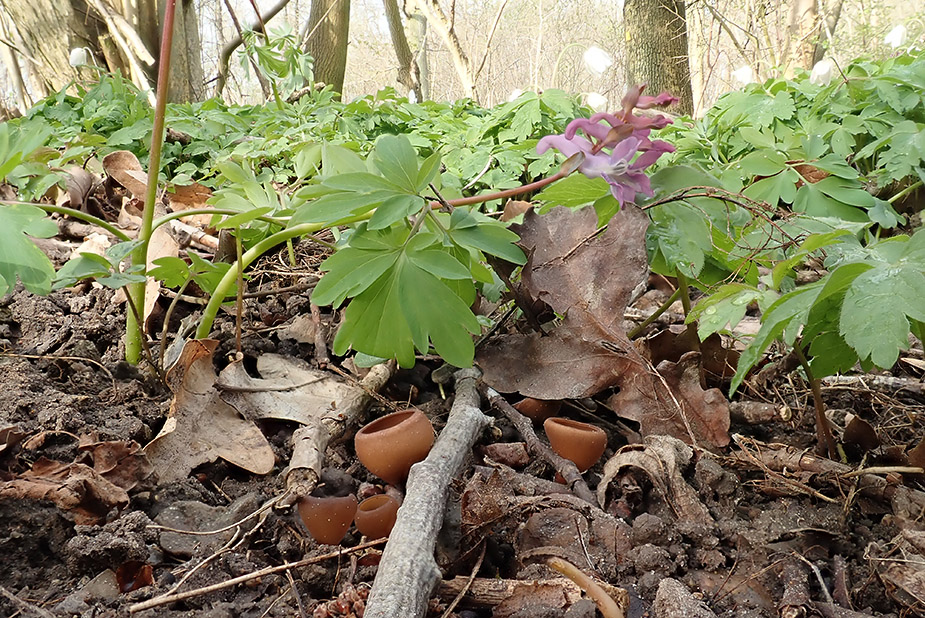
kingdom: Fungi
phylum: Ascomycota
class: Leotiomycetes
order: Helotiales
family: Sclerotiniaceae
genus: Dumontinia
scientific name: Dumontinia tuberosa
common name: anemone-knoldskive
